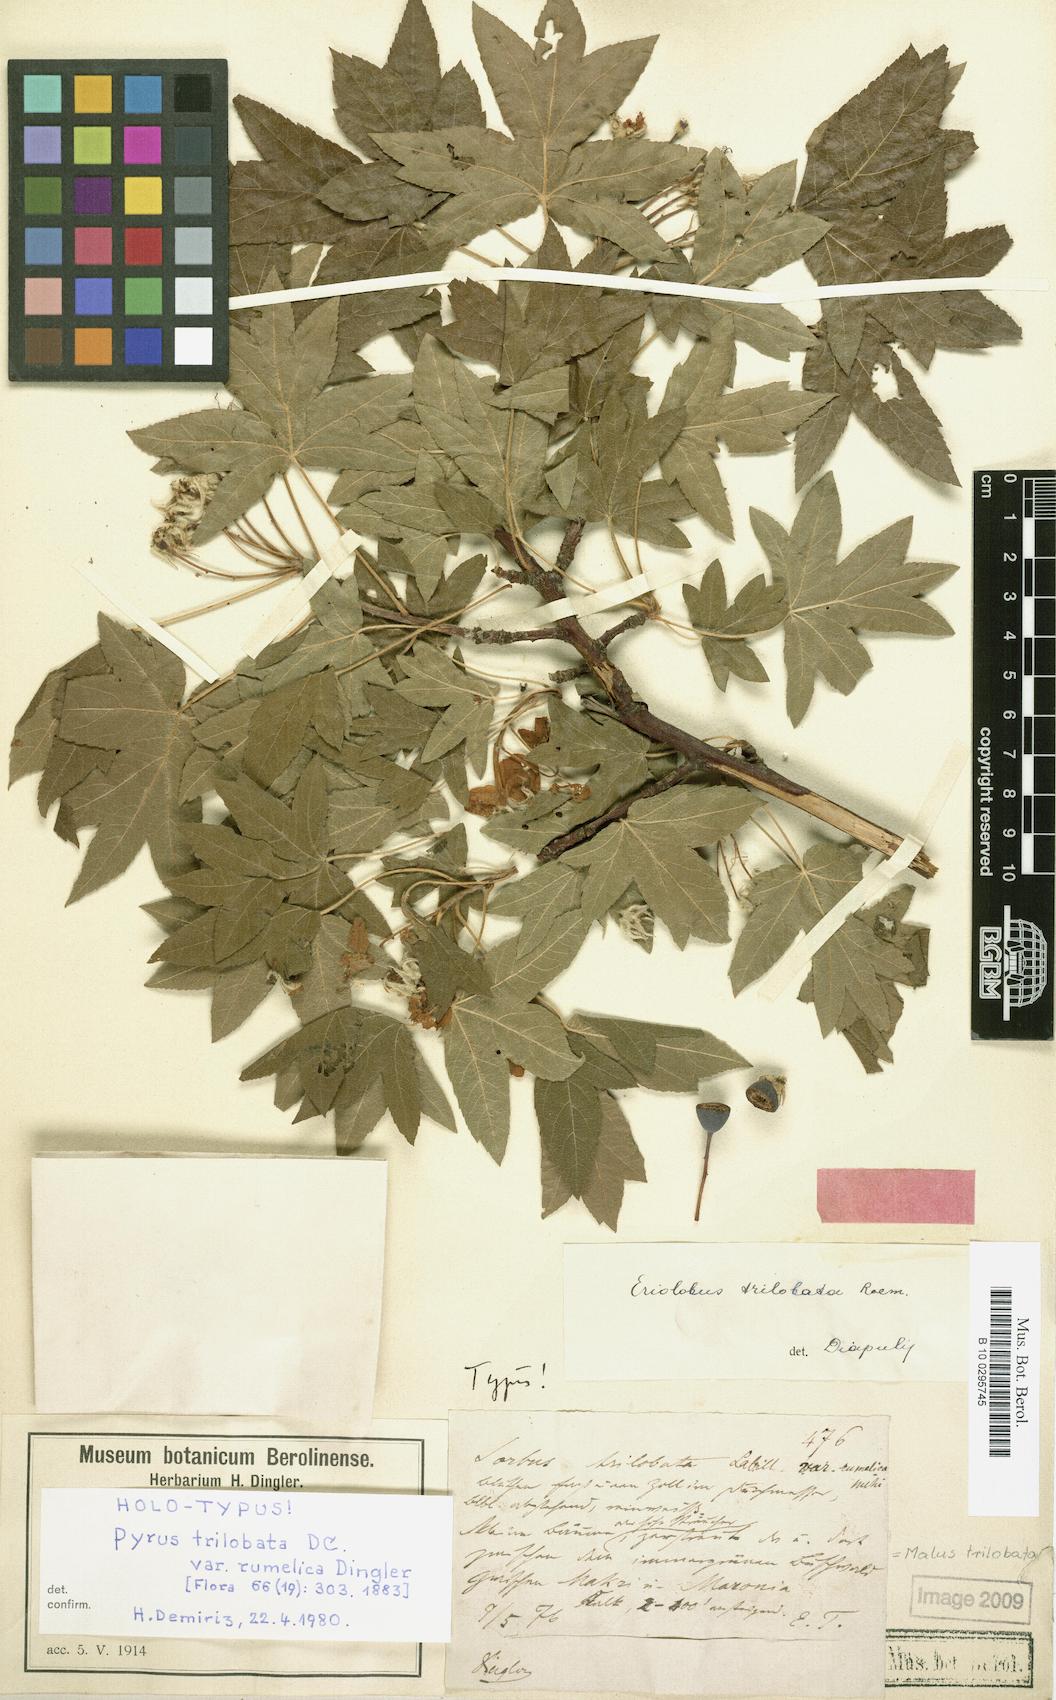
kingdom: Plantae
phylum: Tracheophyta
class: Magnoliopsida
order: Rosales
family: Rosaceae
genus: Eriolobus
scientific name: Eriolobus trilobatus
